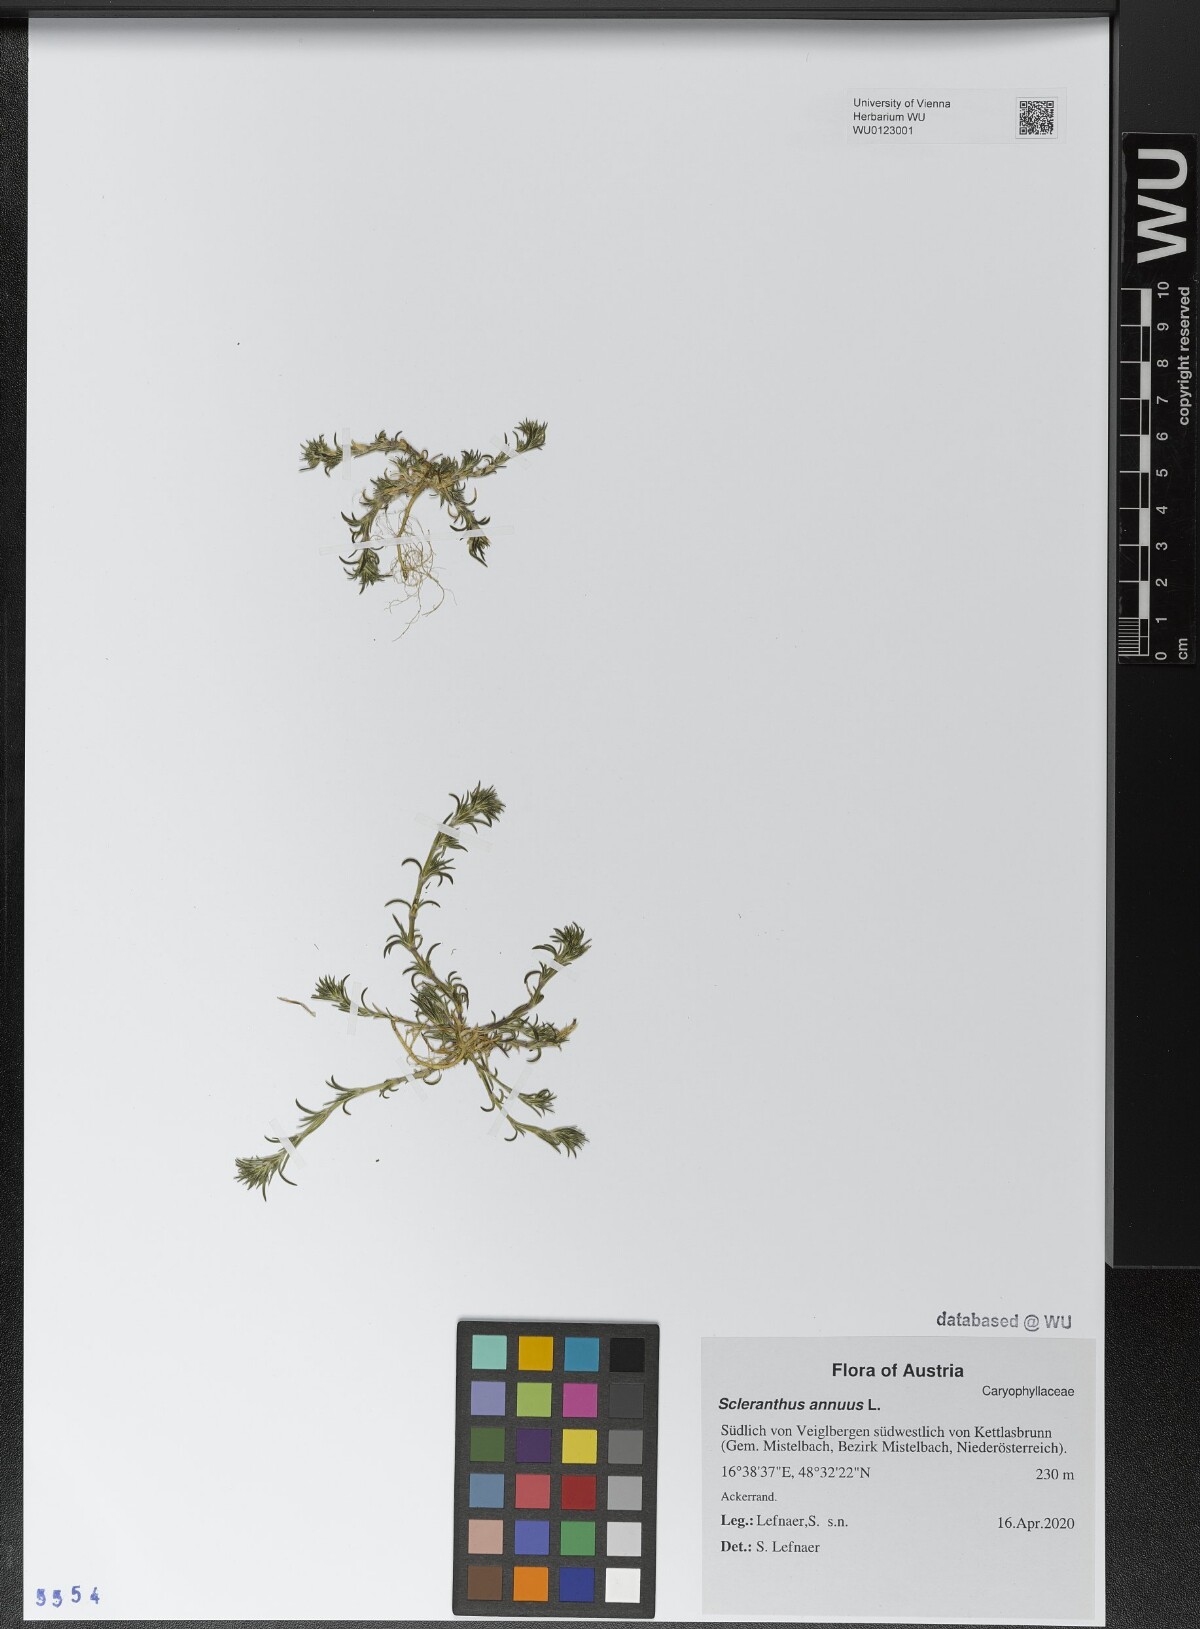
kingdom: Plantae
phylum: Tracheophyta
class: Magnoliopsida
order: Caryophyllales
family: Caryophyllaceae
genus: Scleranthus
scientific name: Scleranthus annuus
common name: Annual knawel
